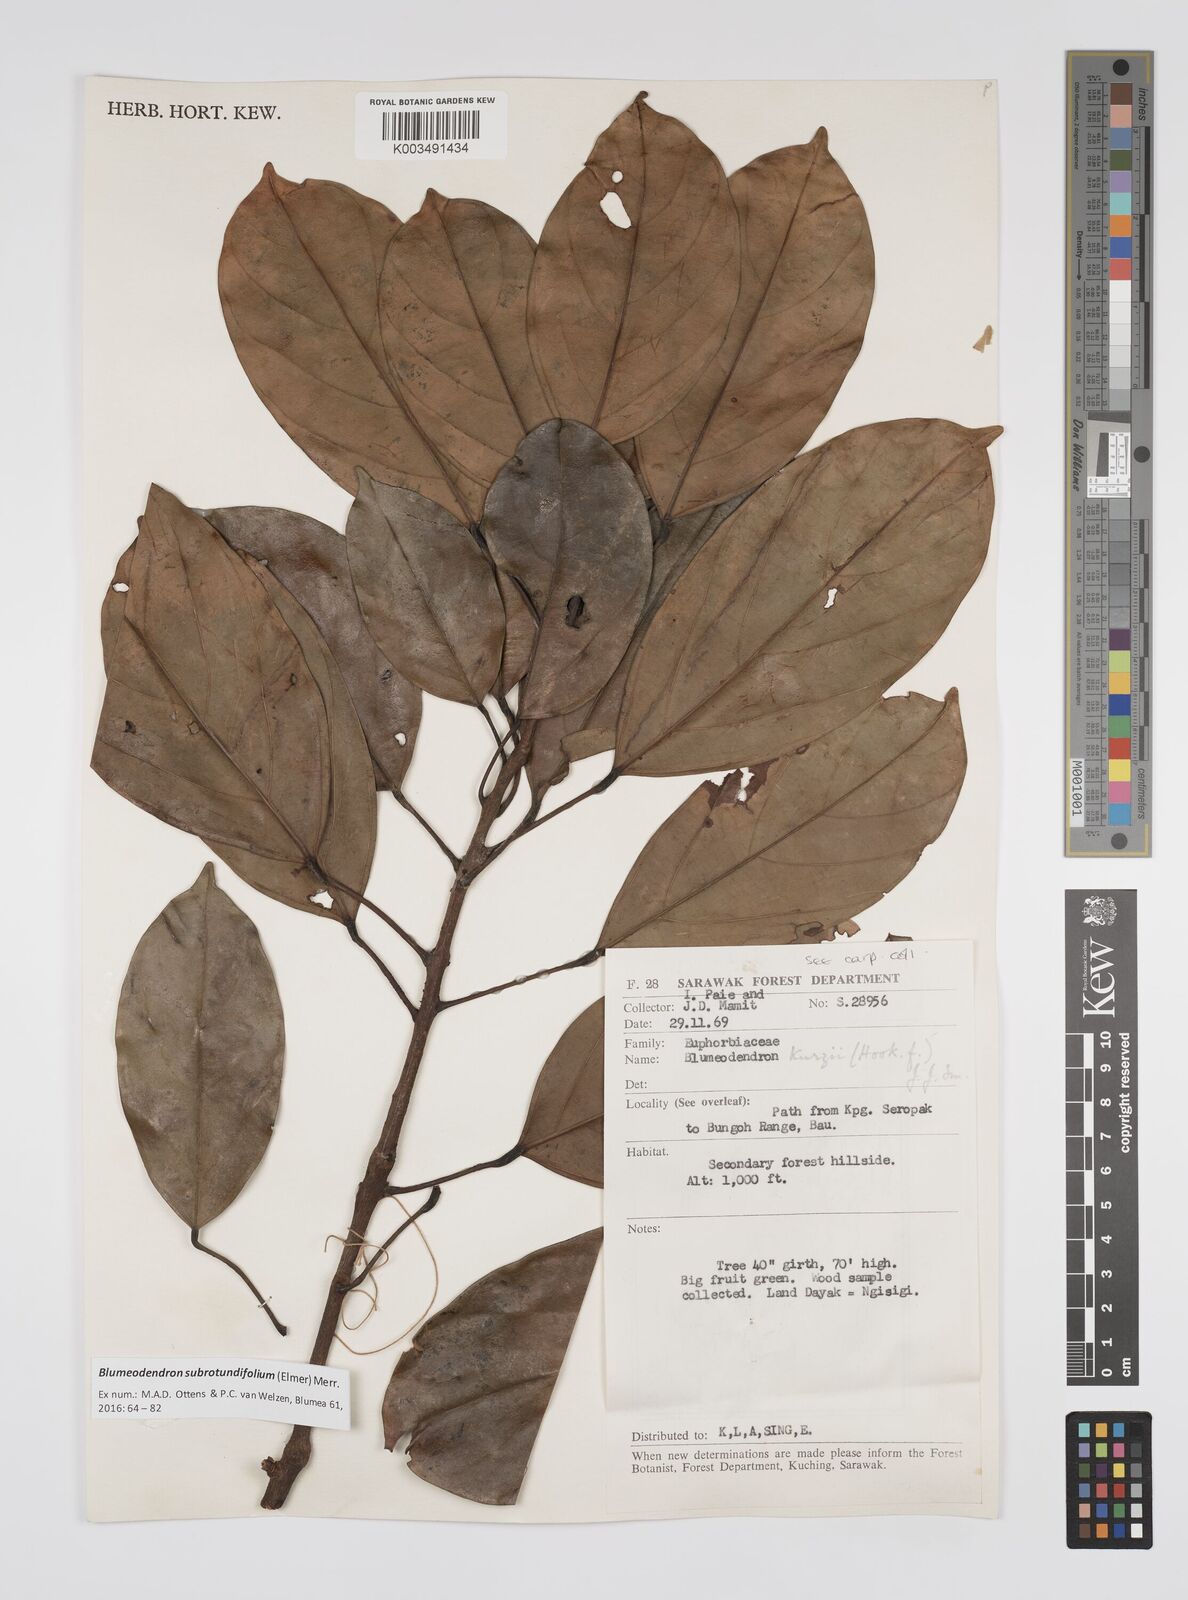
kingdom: Plantae
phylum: Tracheophyta
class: Magnoliopsida
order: Malpighiales
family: Euphorbiaceae
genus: Blumeodendron
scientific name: Blumeodendron subrotundifolium
